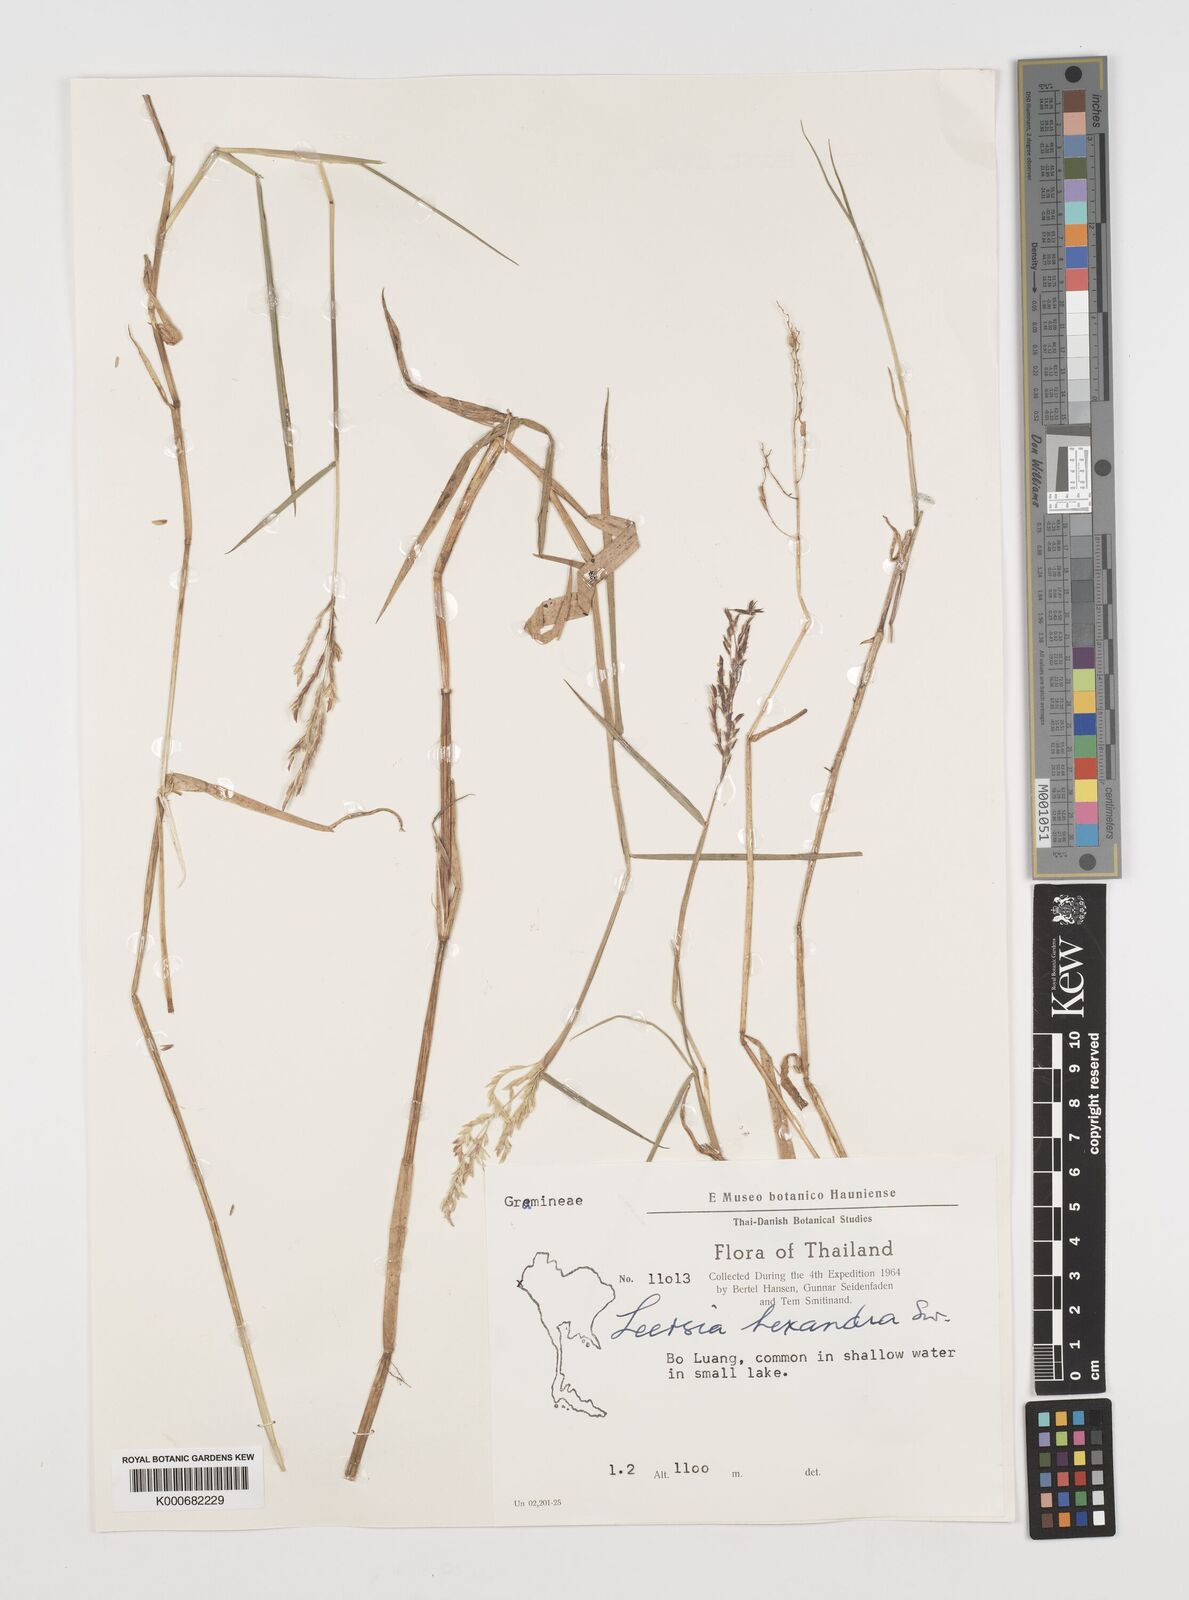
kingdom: Plantae
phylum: Tracheophyta
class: Liliopsida
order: Poales
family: Poaceae
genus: Leersia
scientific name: Leersia hexandra
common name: Southern cut grass
